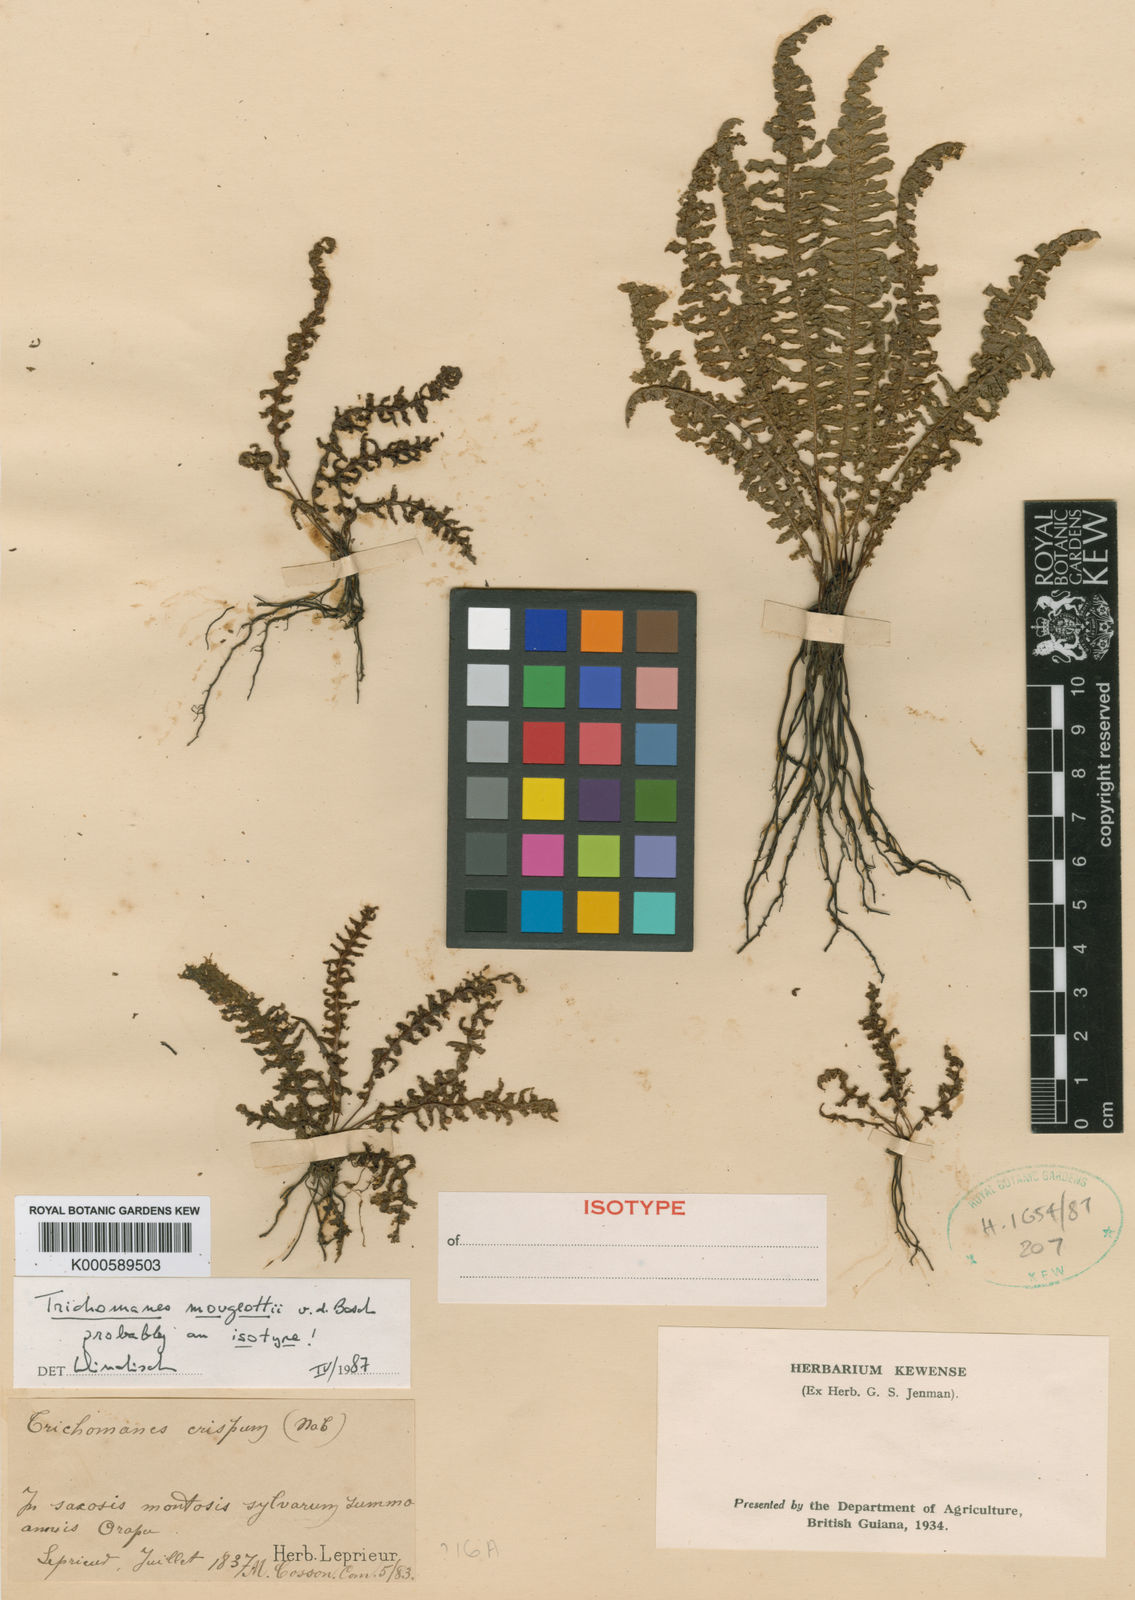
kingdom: Plantae
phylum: Tracheophyta
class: Polypodiopsida
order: Hymenophyllales
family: Hymenophyllaceae
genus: Trichomanes
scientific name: Trichomanes mougeotii
